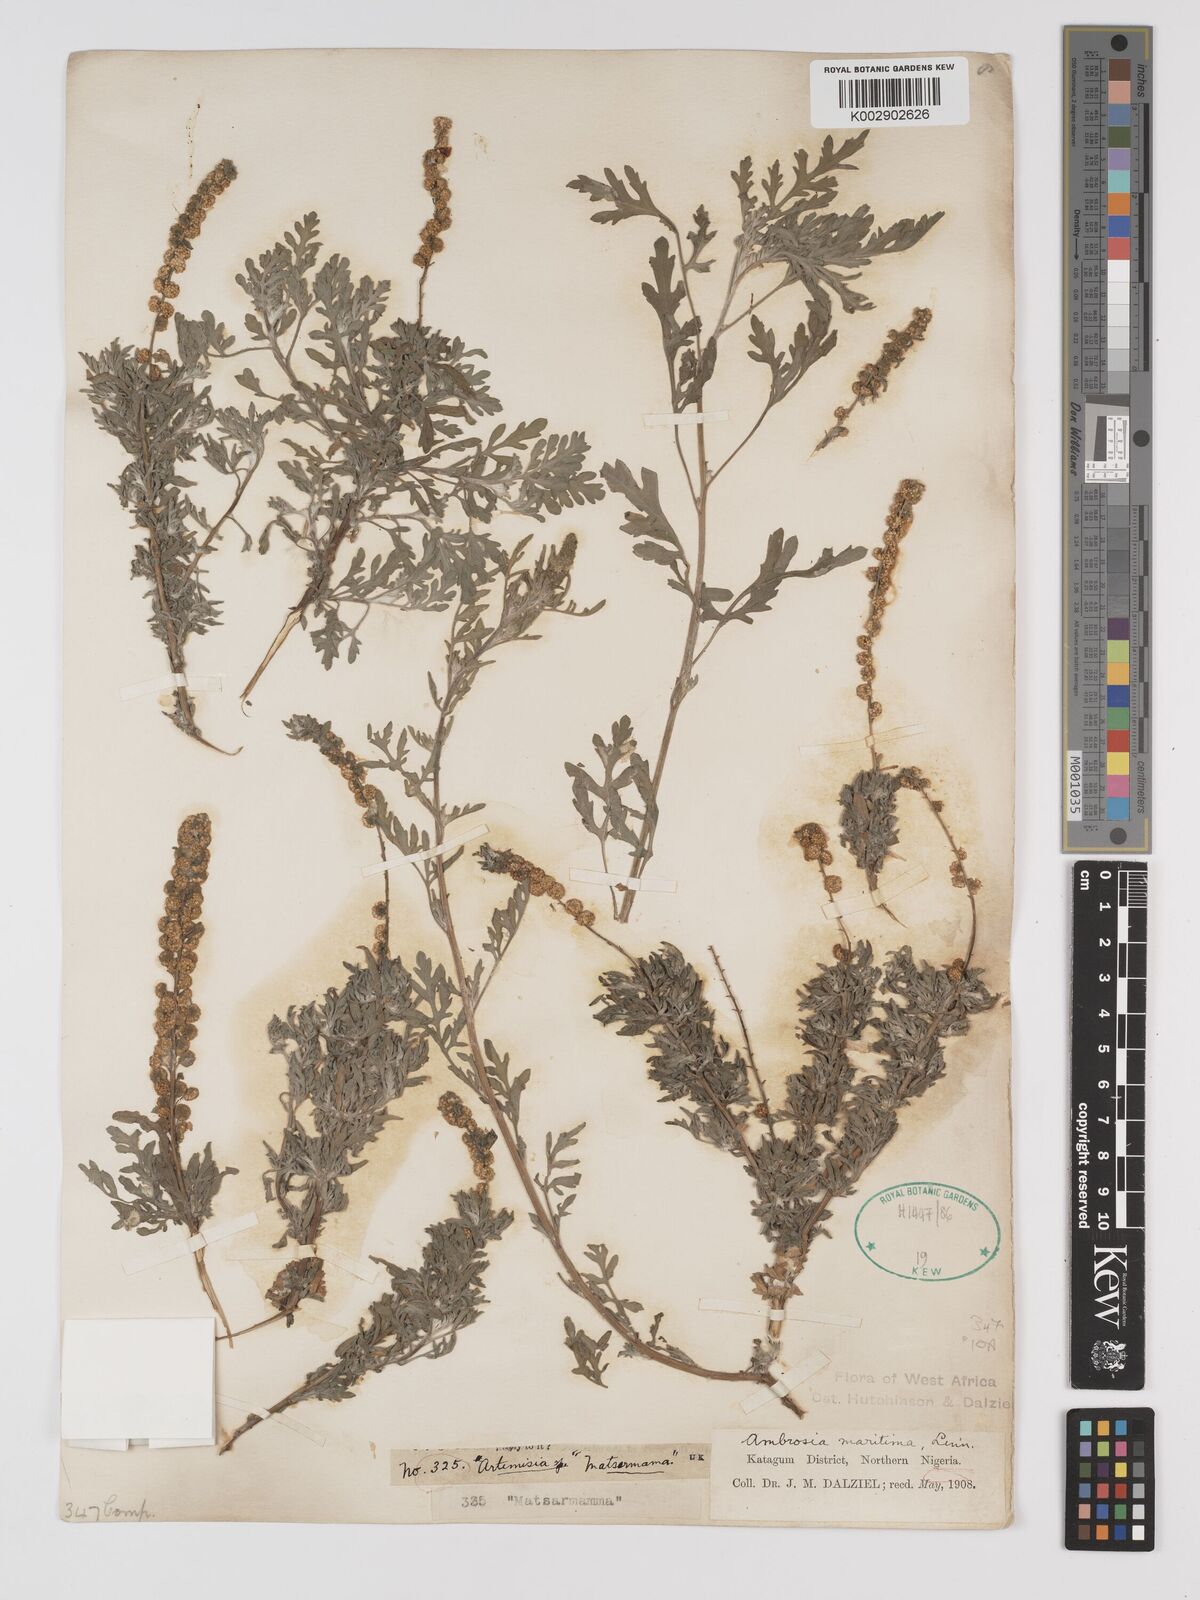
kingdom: Plantae
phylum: Tracheophyta
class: Magnoliopsida
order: Asterales
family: Asteraceae
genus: Ambrosia
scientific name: Ambrosia maritima
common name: Sea ambrosia
